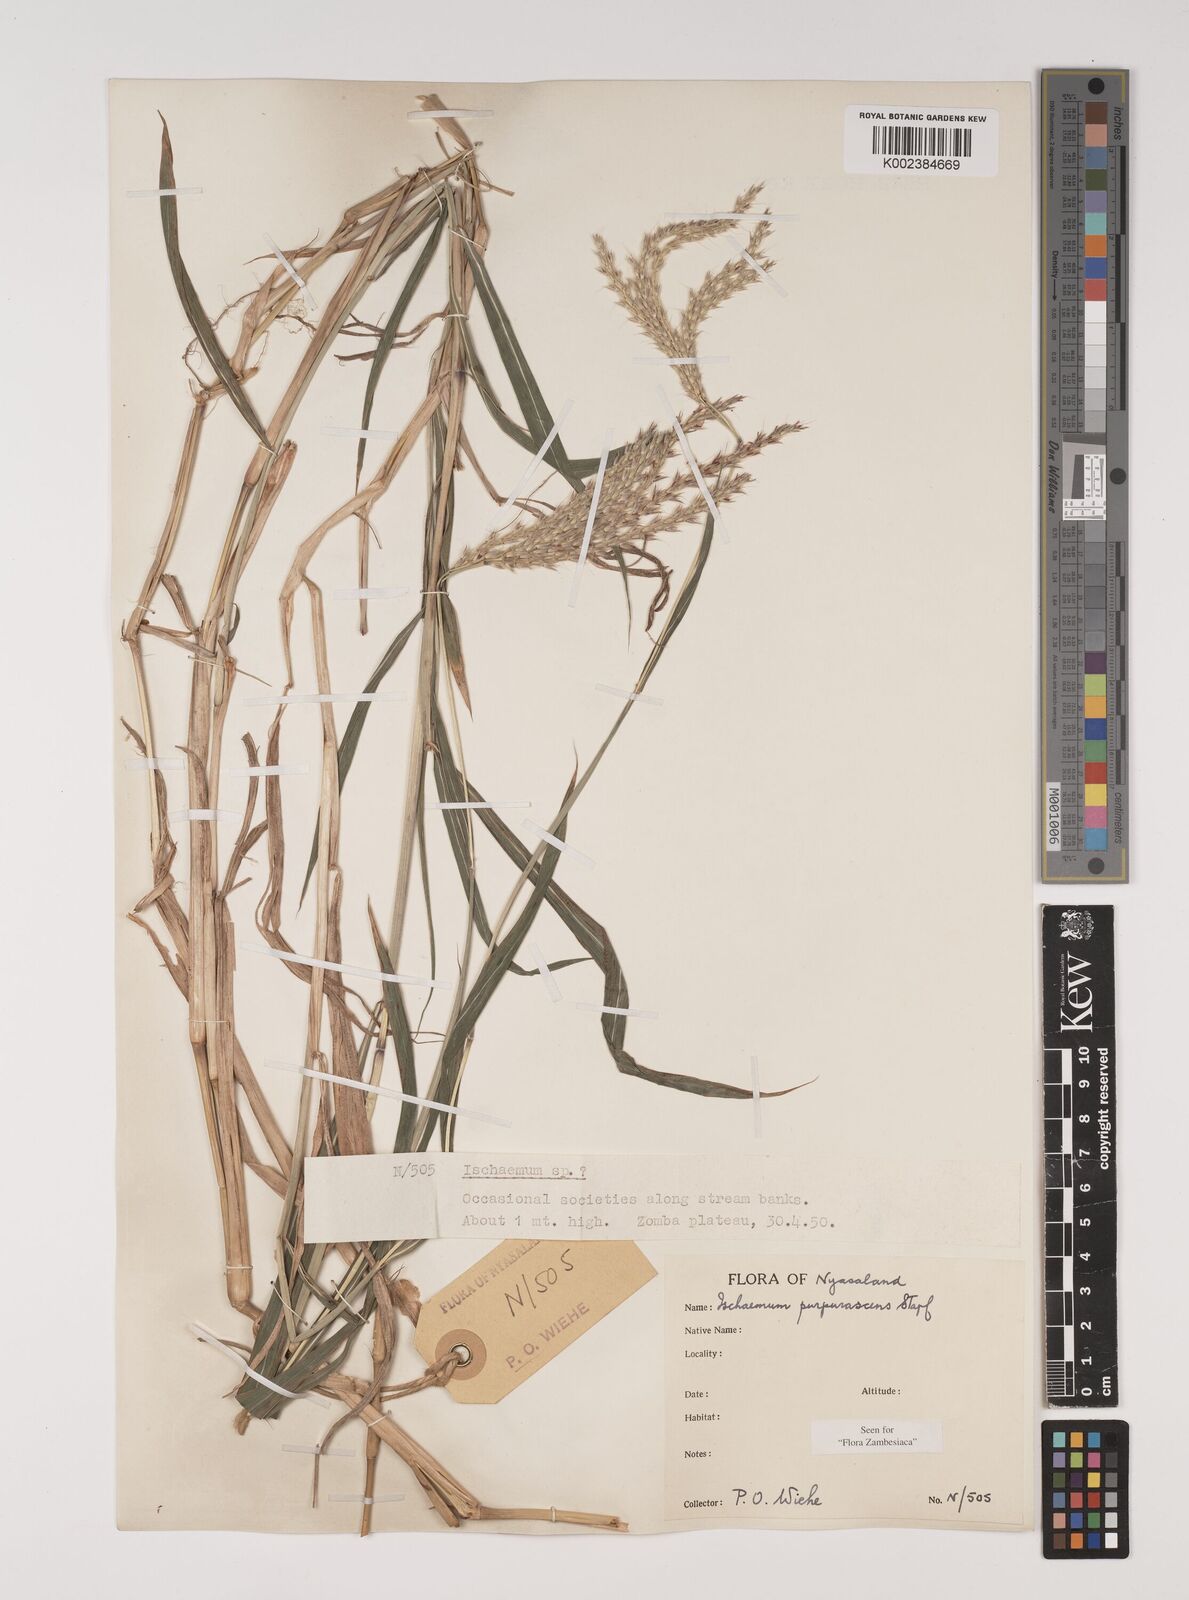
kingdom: Plantae
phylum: Tracheophyta
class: Liliopsida
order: Poales
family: Poaceae
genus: Ischaemum
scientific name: Ischaemum
